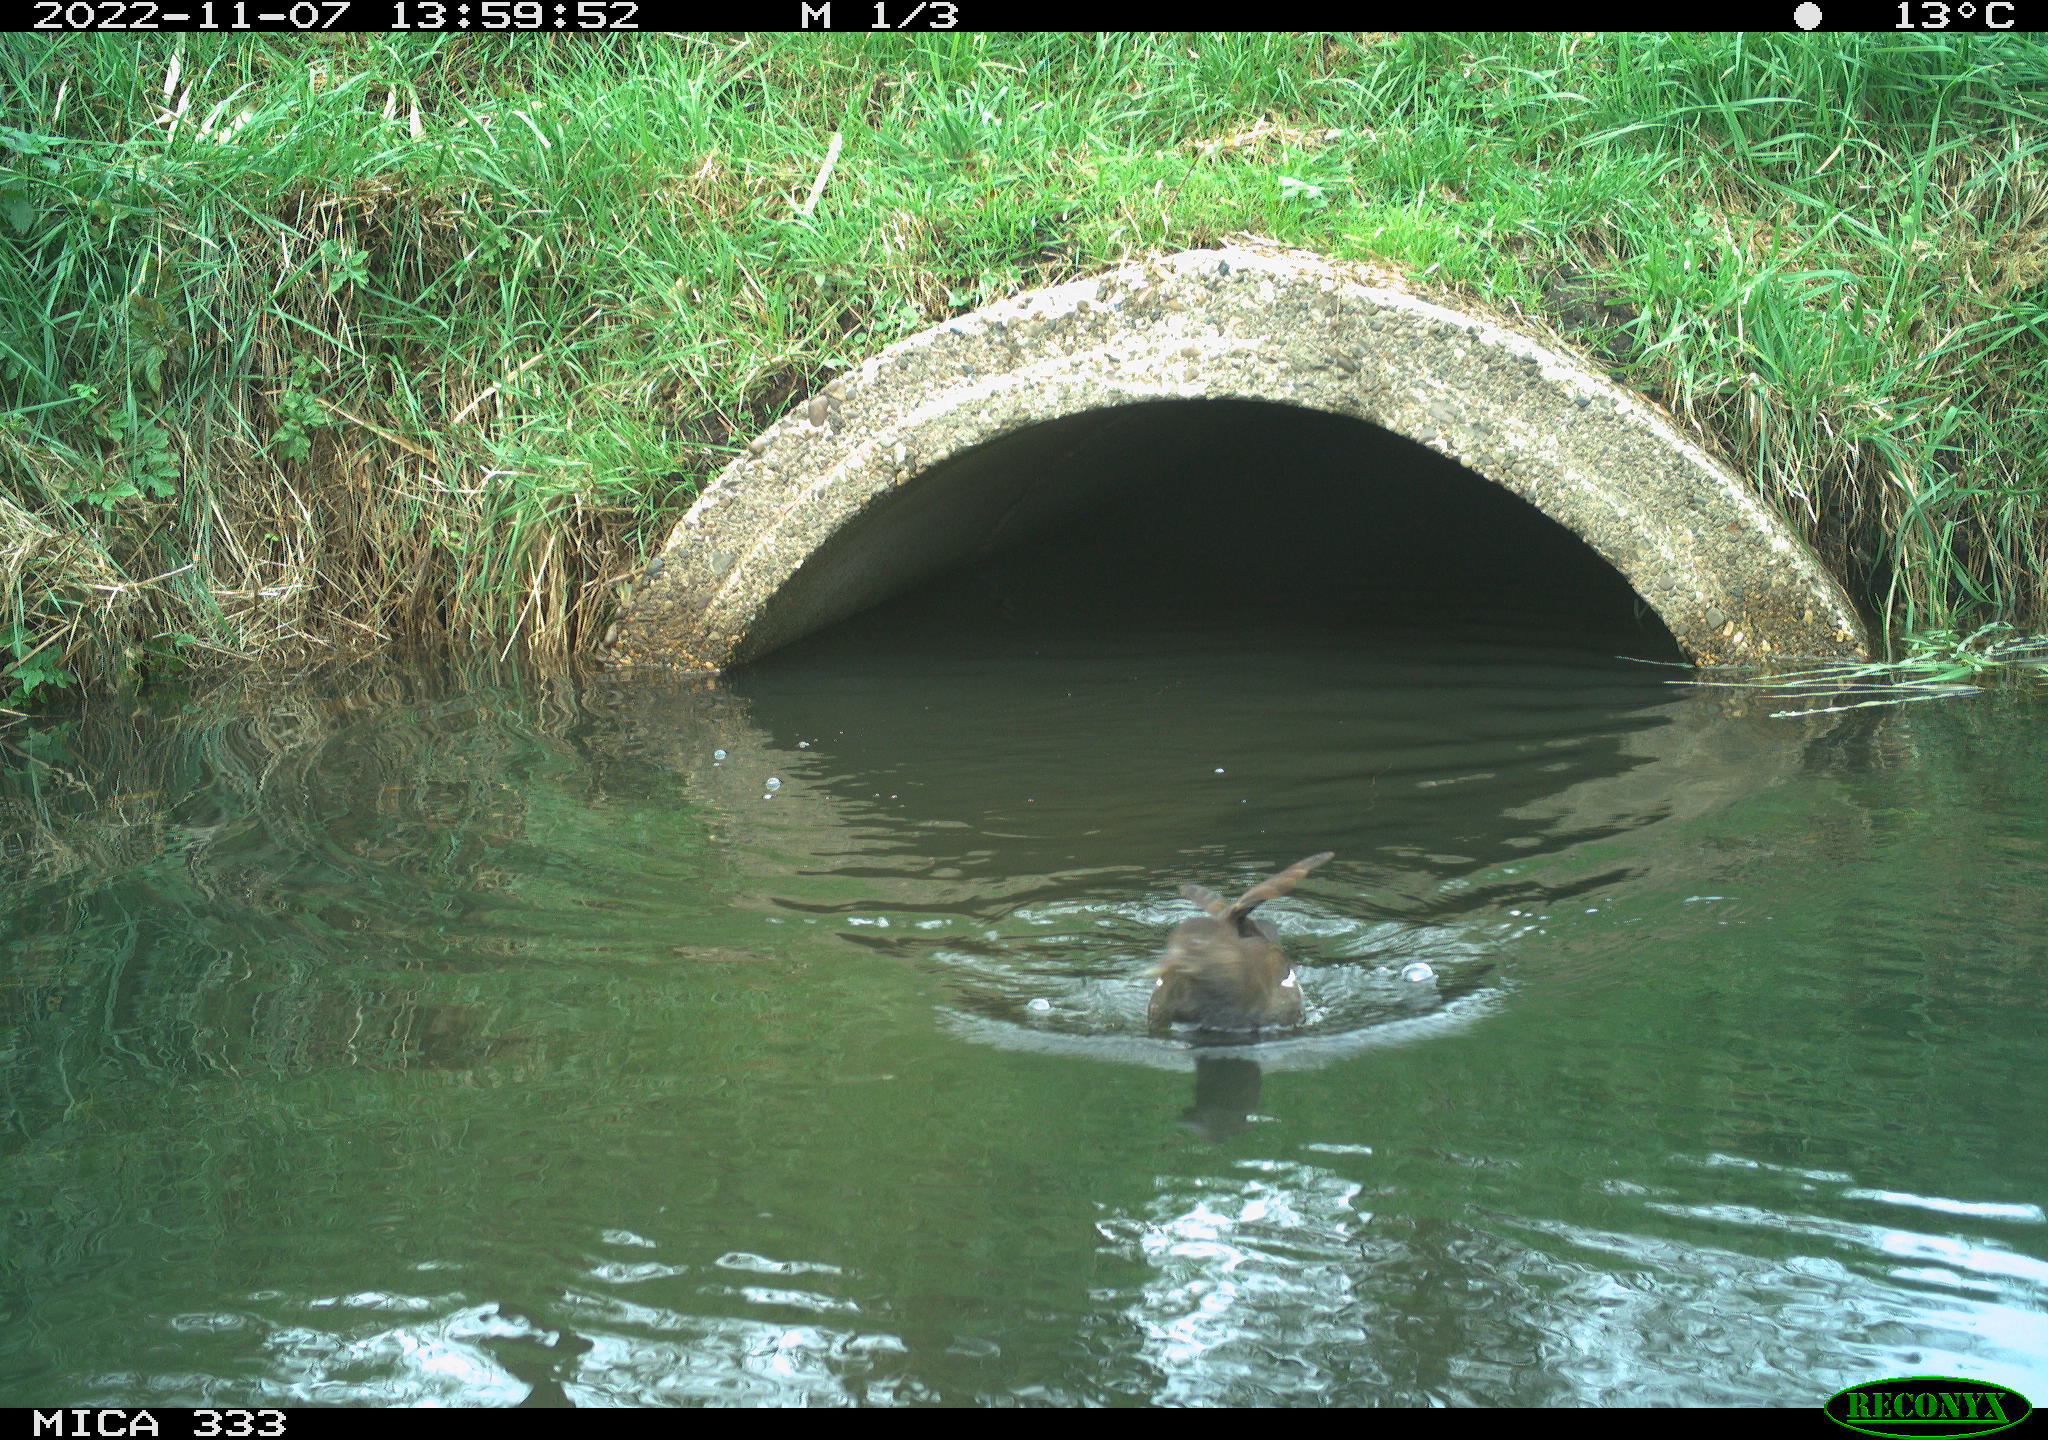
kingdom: Animalia
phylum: Chordata
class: Aves
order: Gruiformes
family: Rallidae
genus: Gallinula
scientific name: Gallinula chloropus
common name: Common moorhen
